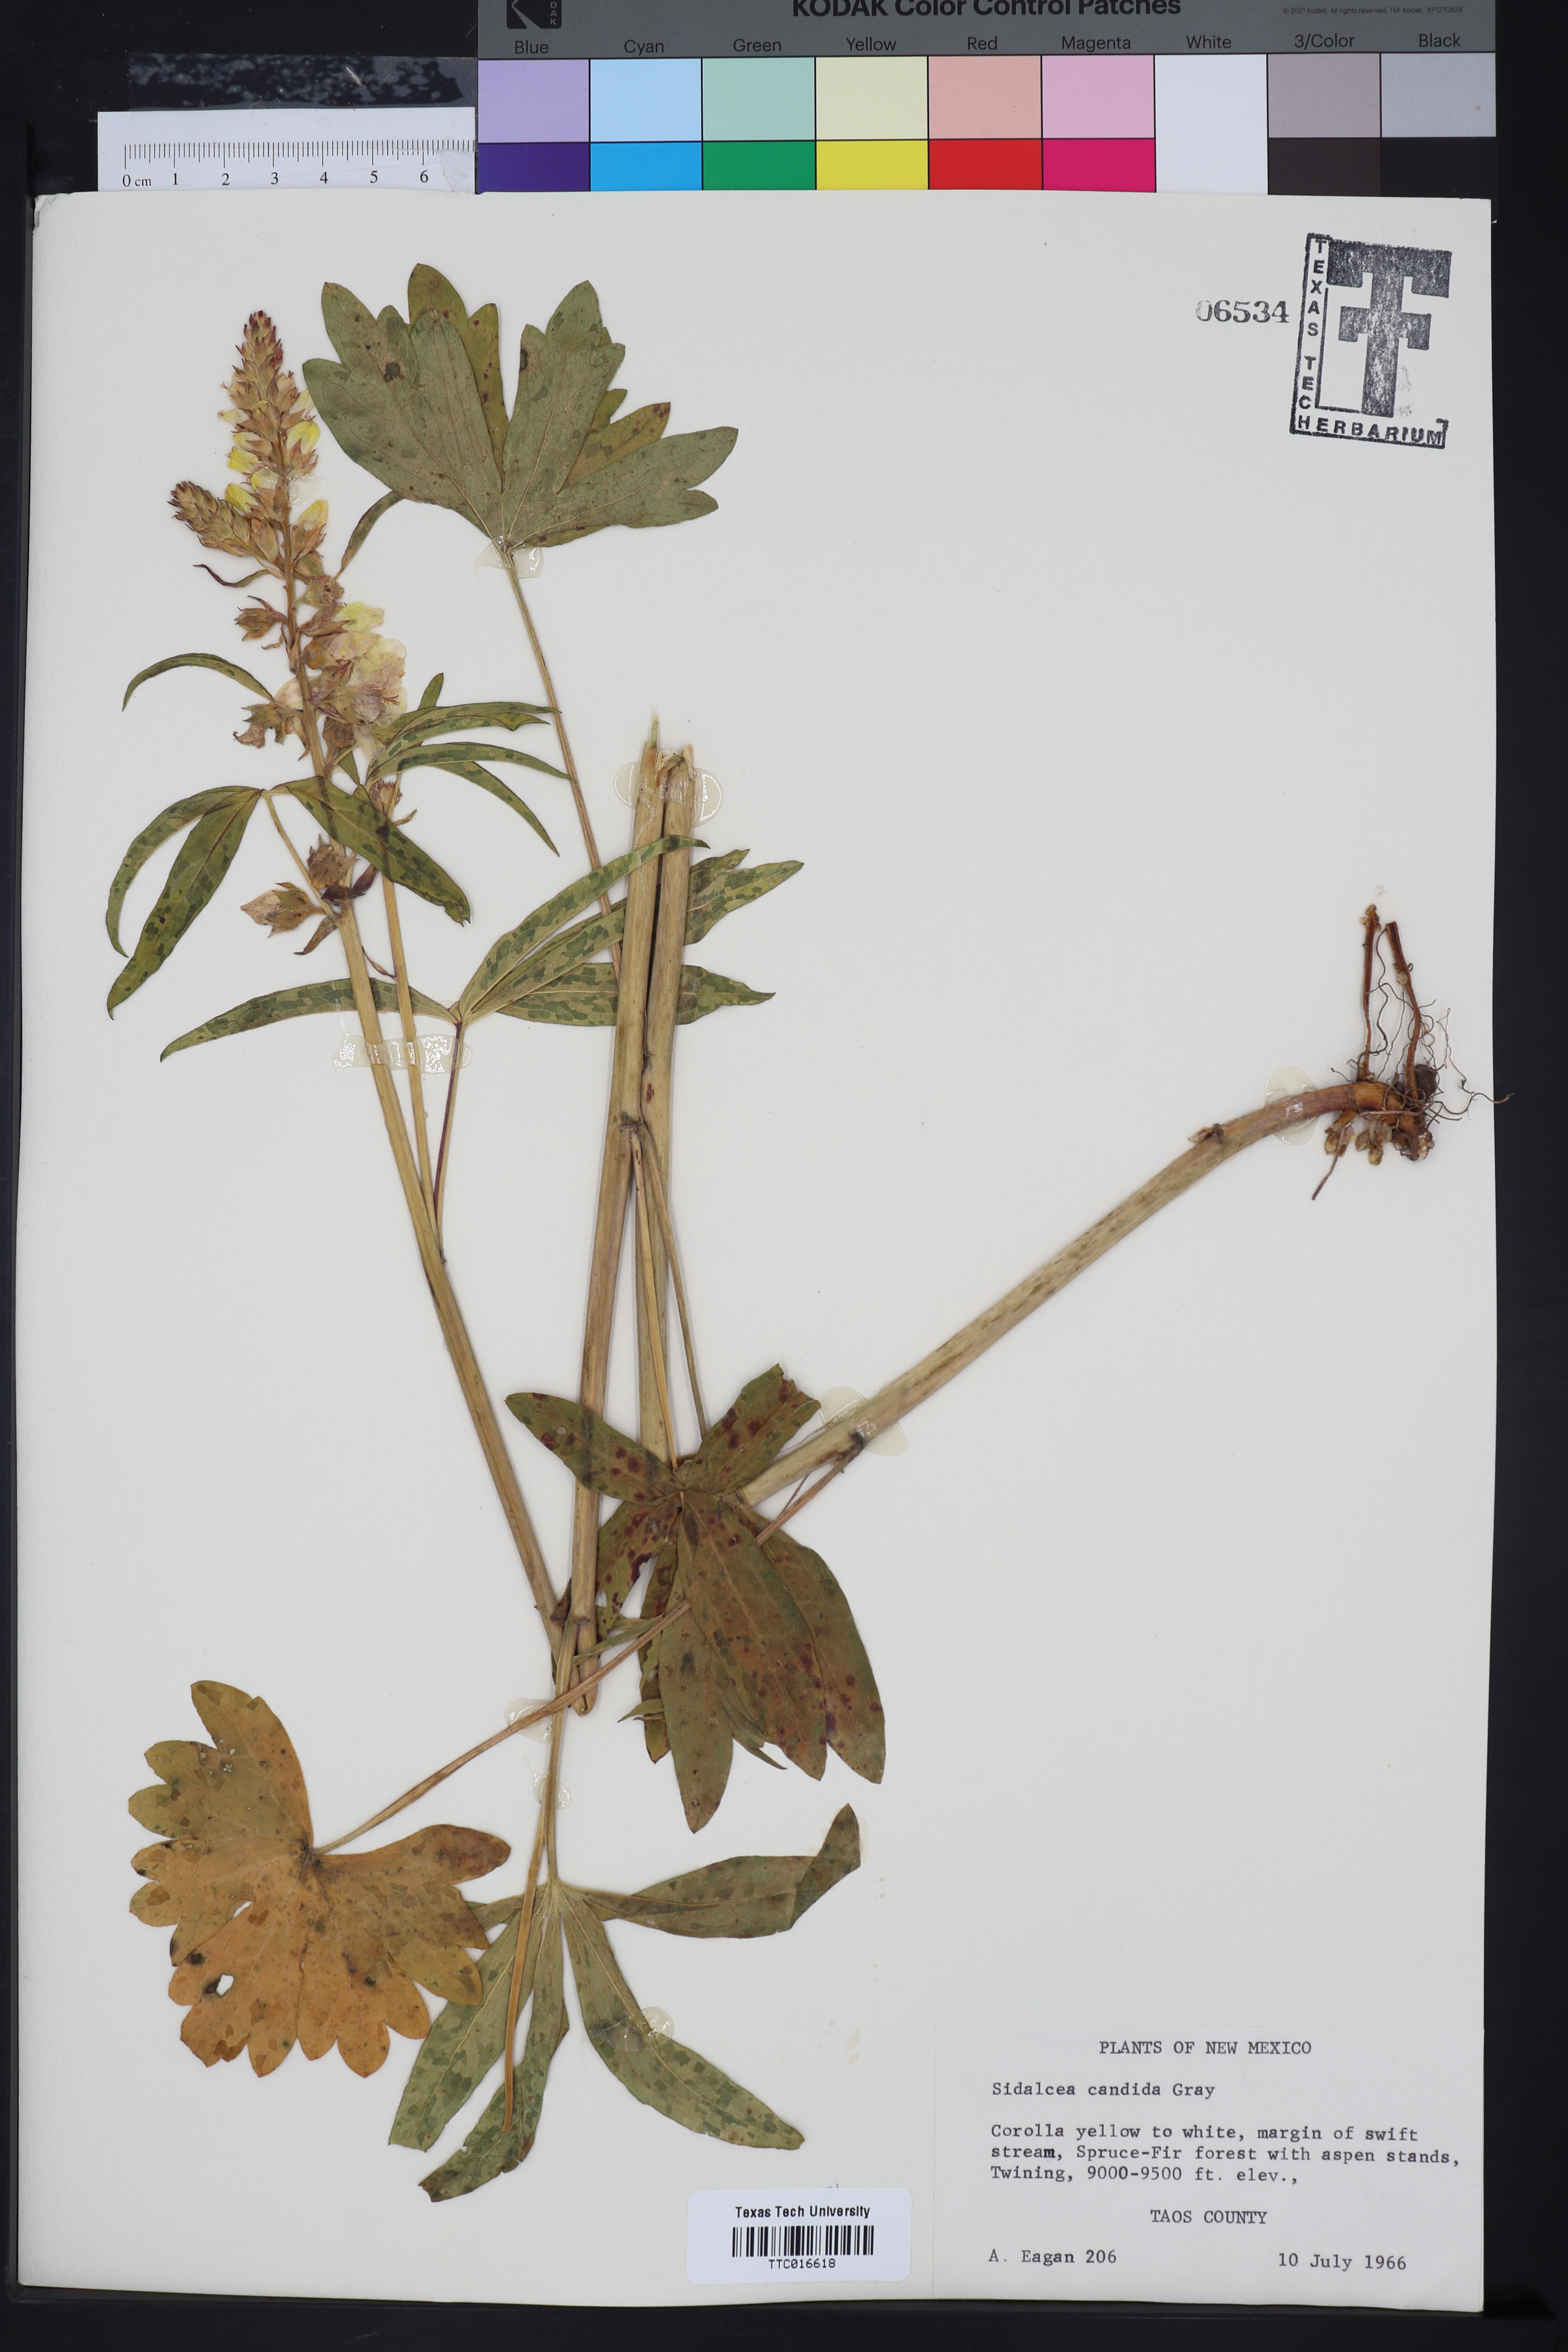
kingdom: Plantae
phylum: Tracheophyta
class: Magnoliopsida
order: Malvales
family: Malvaceae
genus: Sidalcea
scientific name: Sidalcea candida
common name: Prairie-mallow
